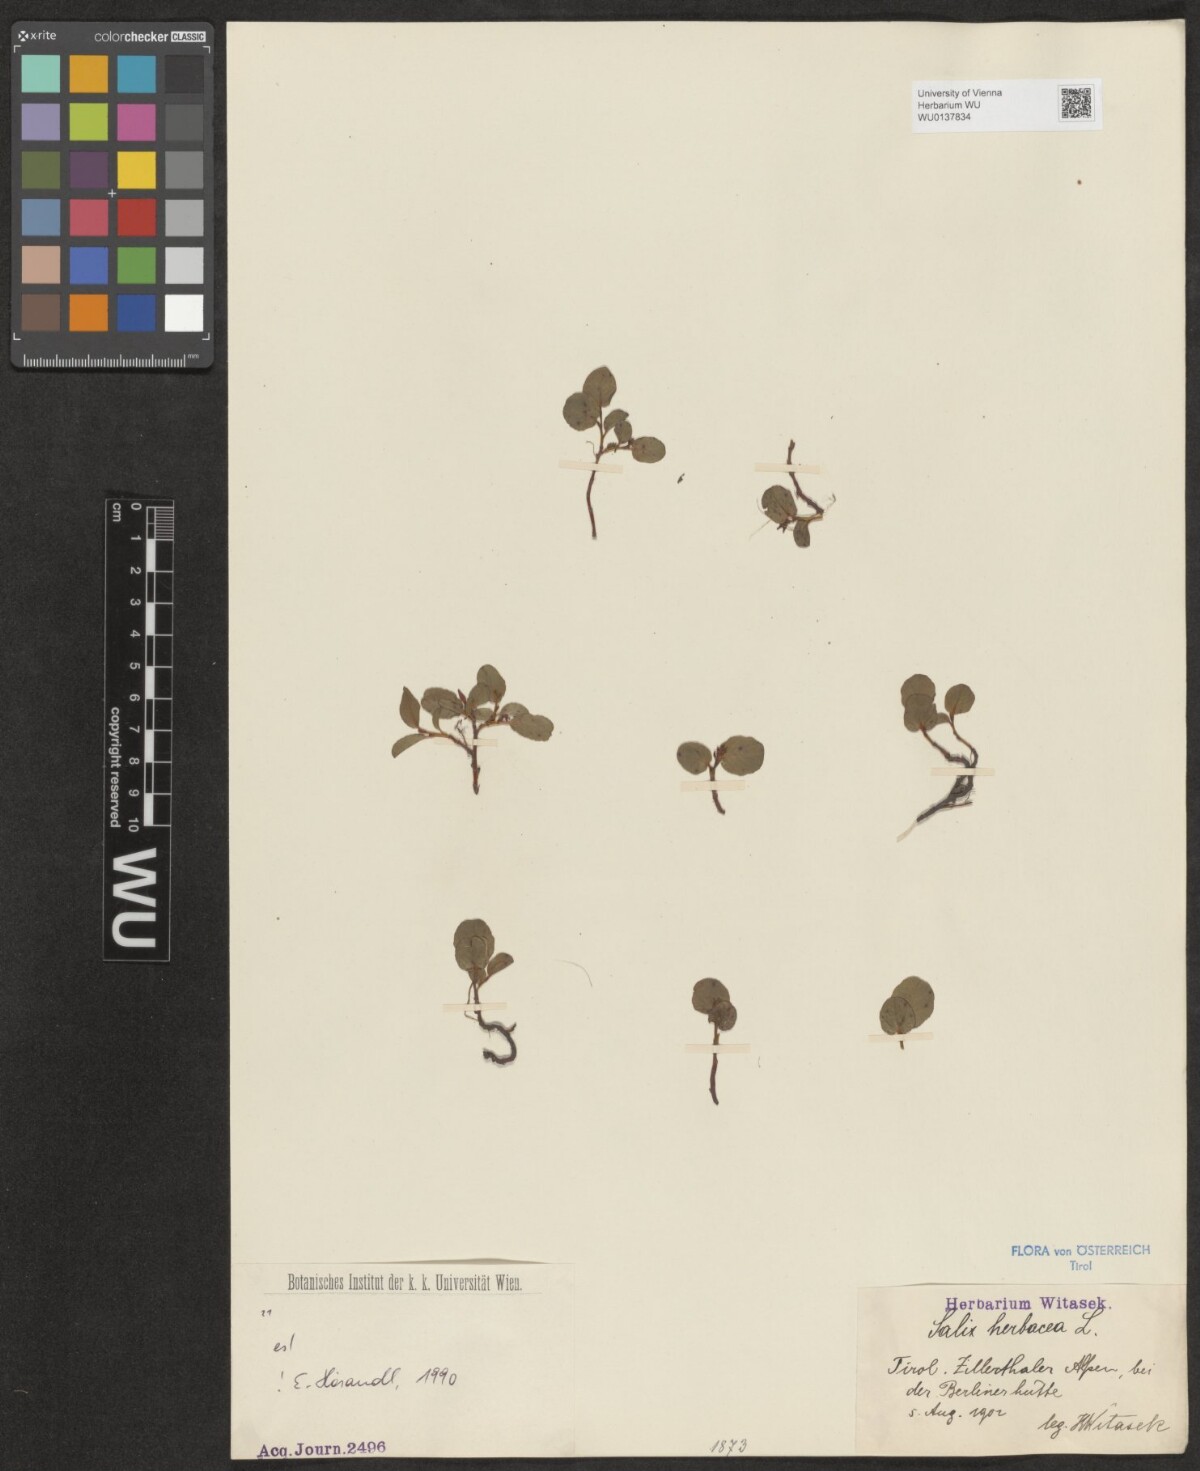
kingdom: Plantae
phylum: Tracheophyta
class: Magnoliopsida
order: Malpighiales
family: Salicaceae
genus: Salix
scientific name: Salix herbacea
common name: Dwarf willow
